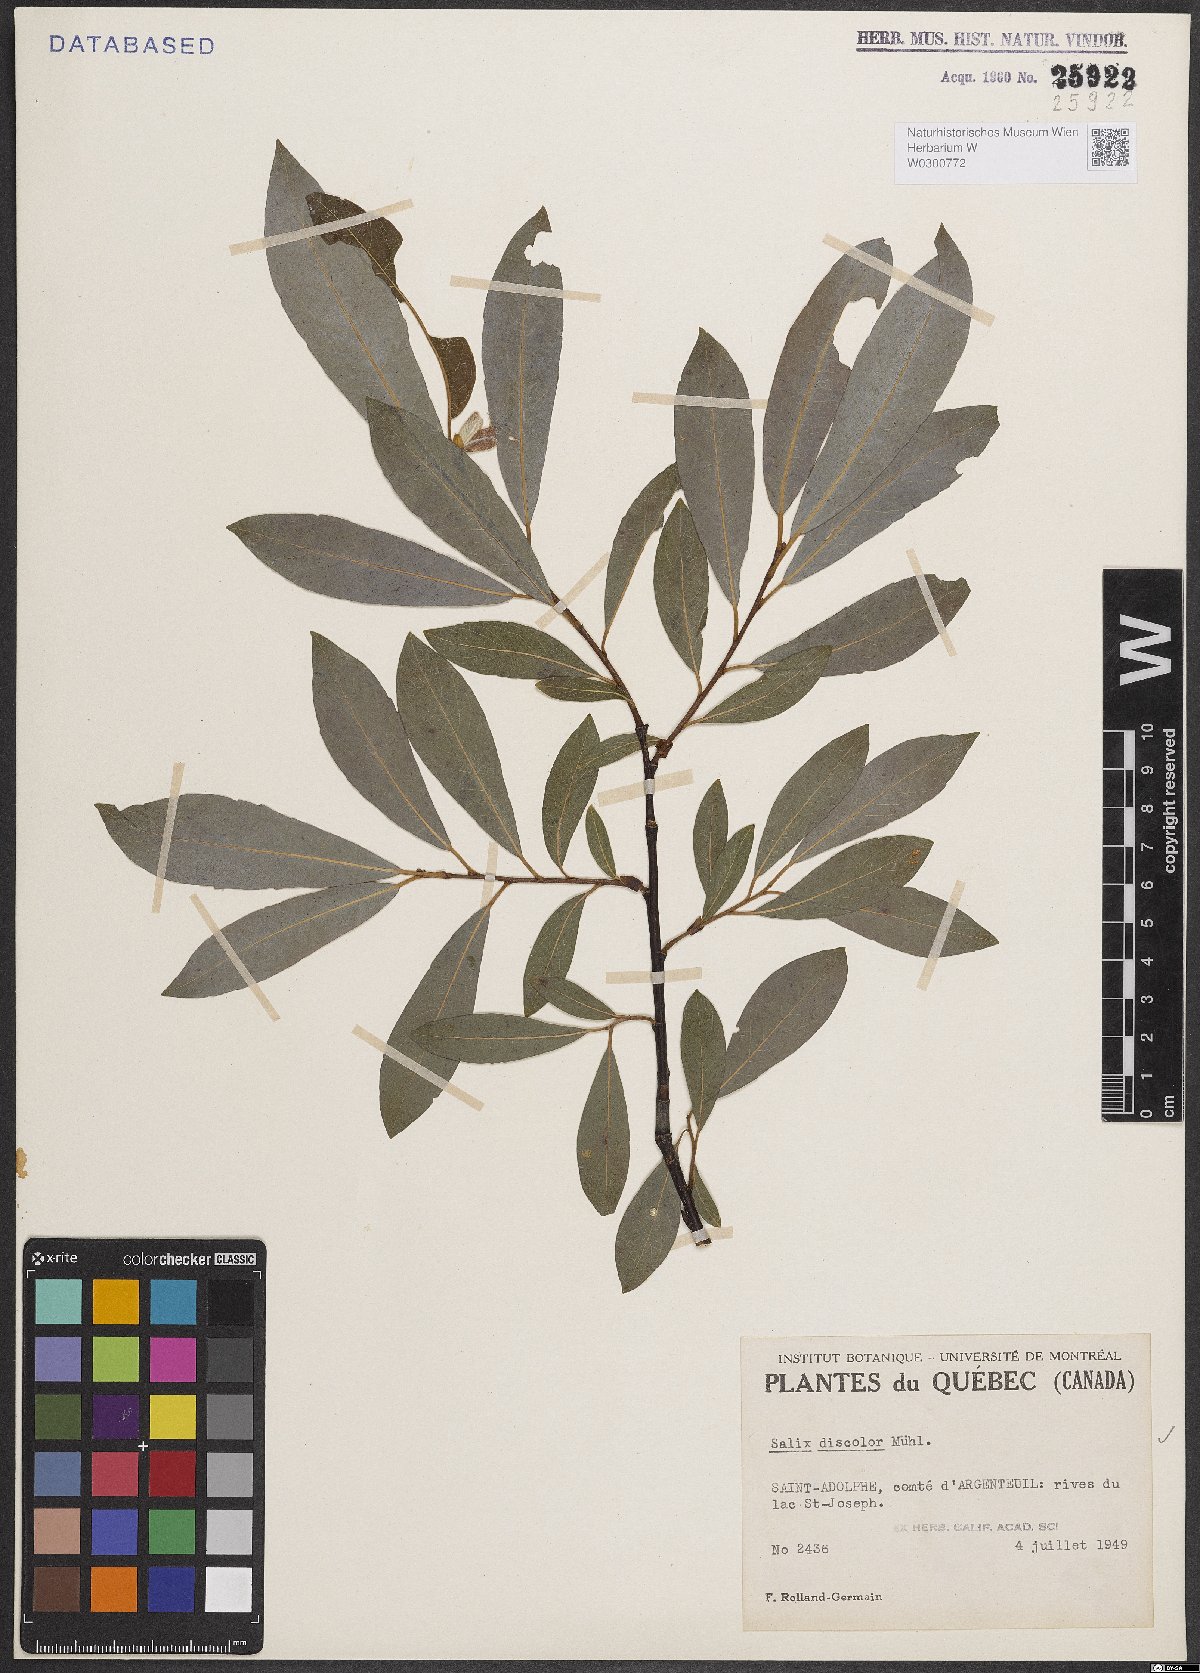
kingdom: Plantae
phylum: Tracheophyta
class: Magnoliopsida
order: Malpighiales
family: Salicaceae
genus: Salix
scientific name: Salix discolor
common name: Glaucous willow
